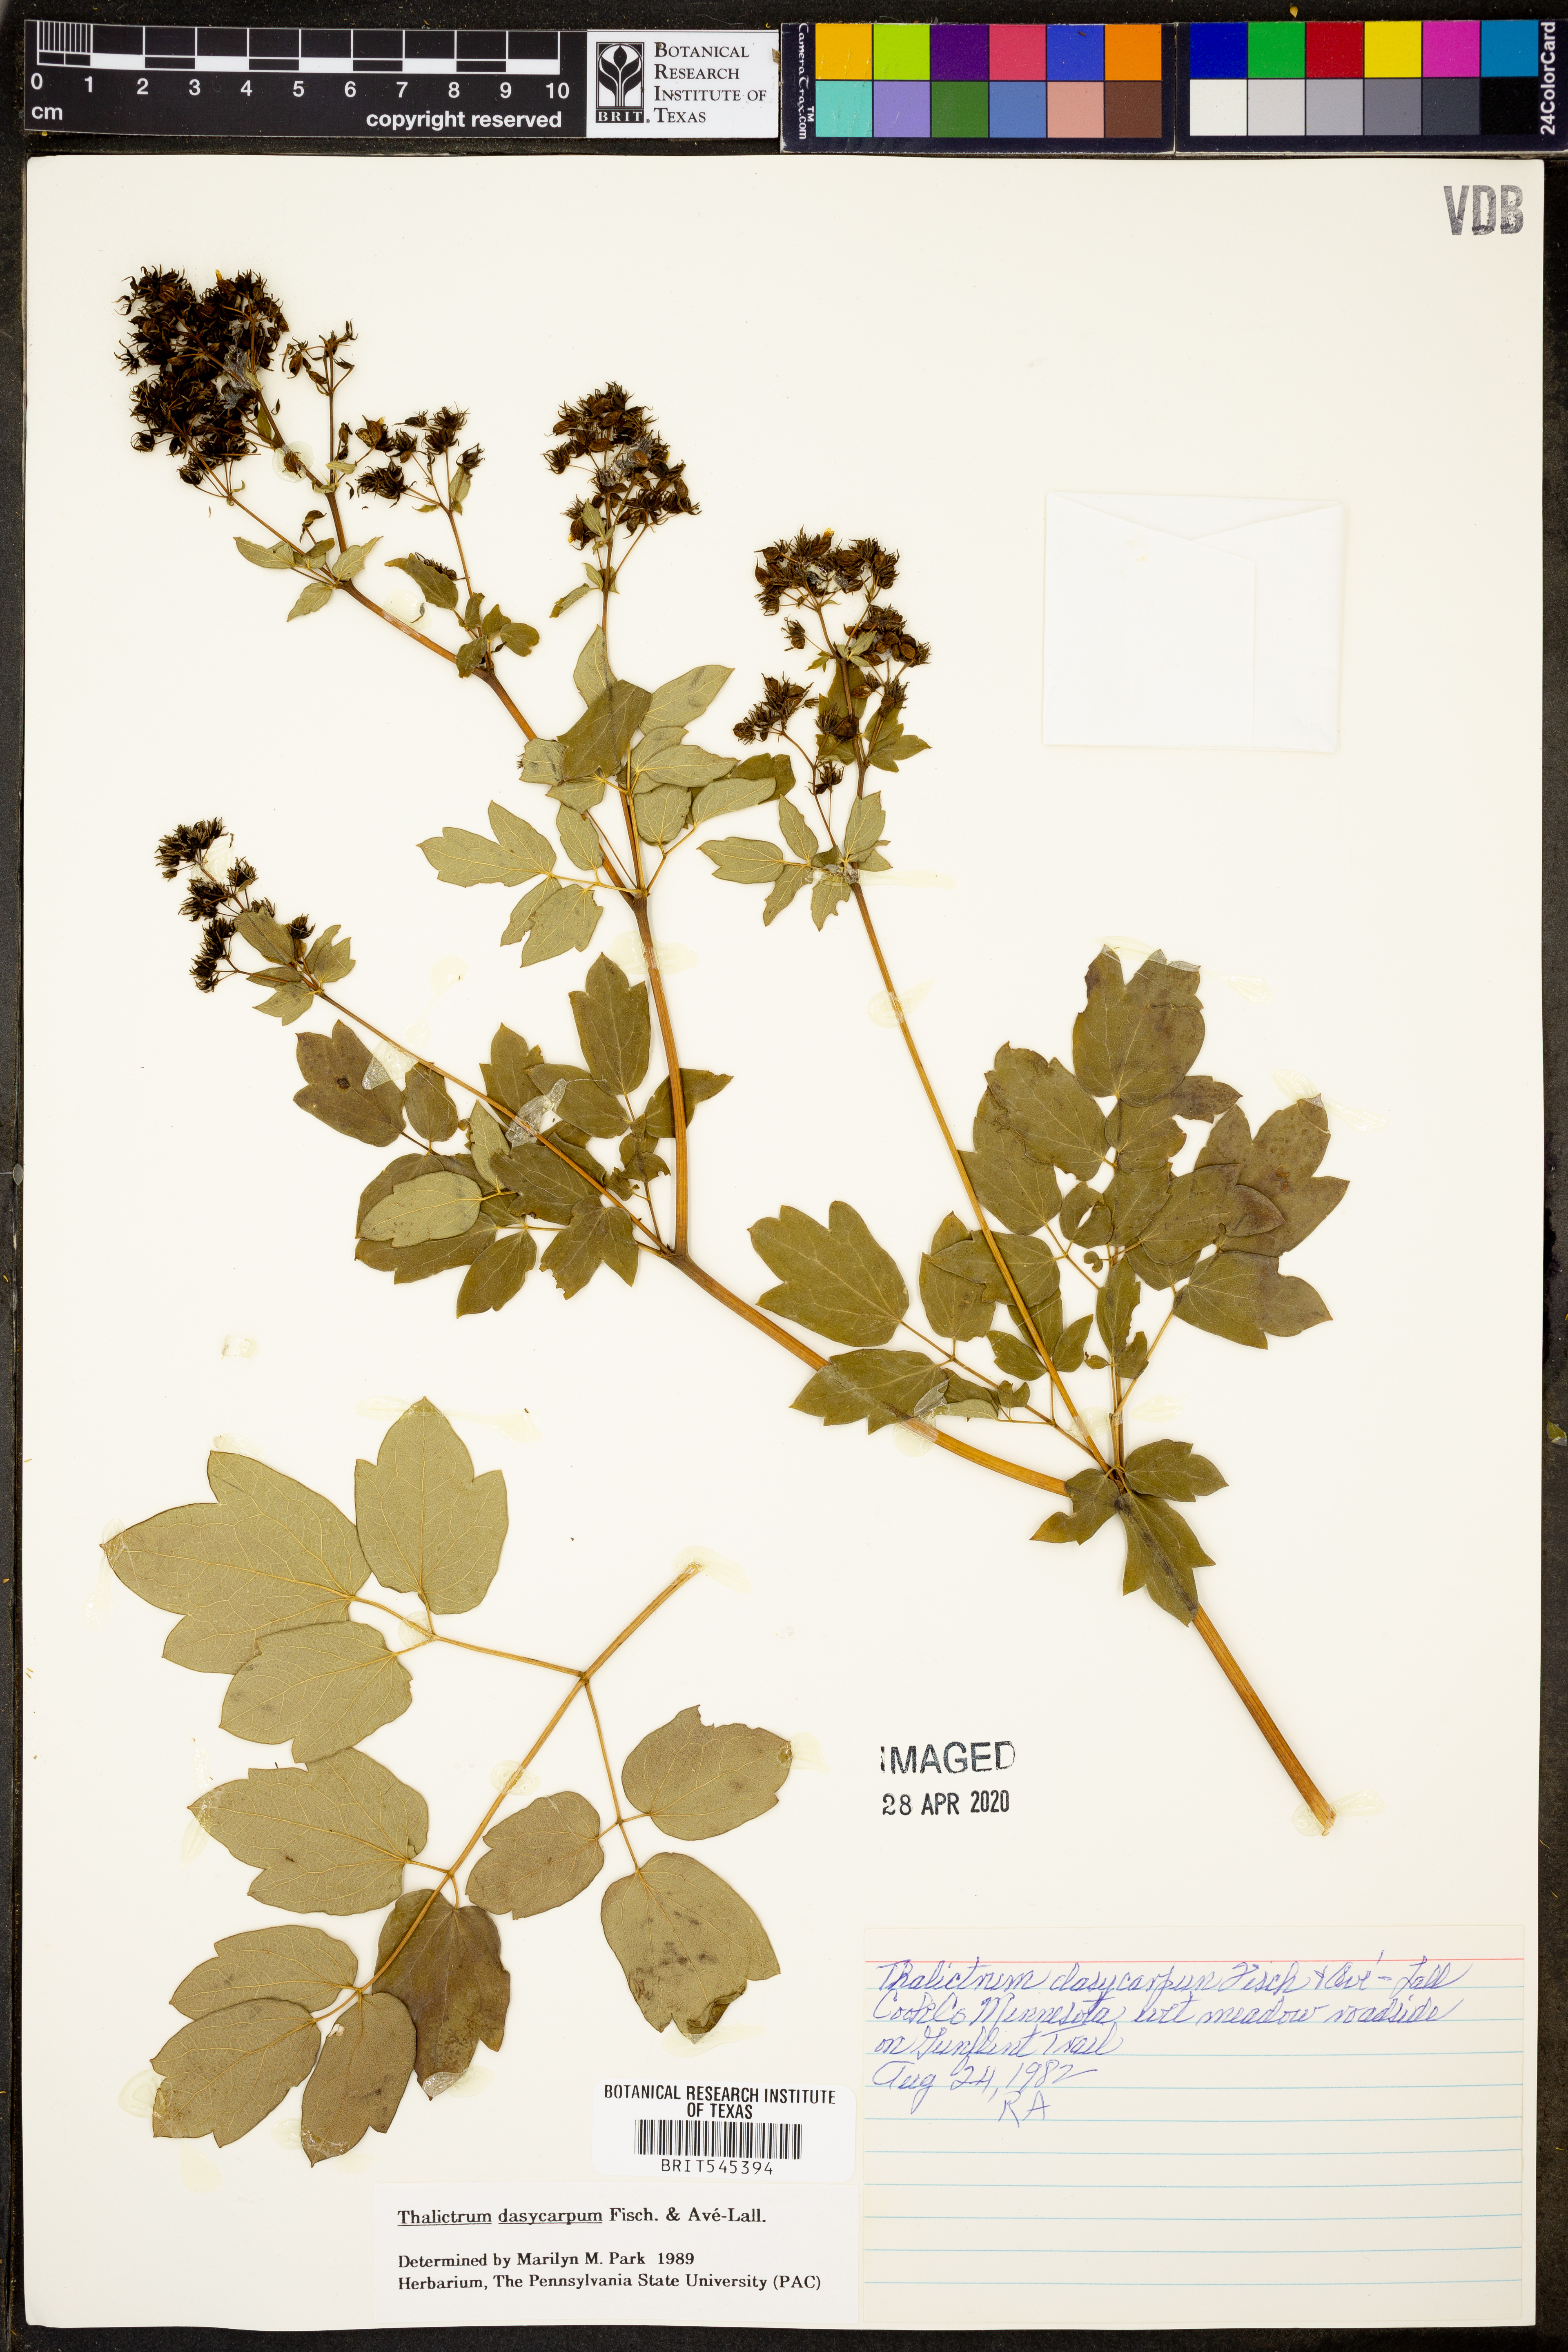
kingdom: Plantae
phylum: Tracheophyta
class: Magnoliopsida
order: Ranunculales
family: Ranunculaceae
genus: Thalictrum
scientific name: Thalictrum dasycarpum
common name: Purple meadow-rue
